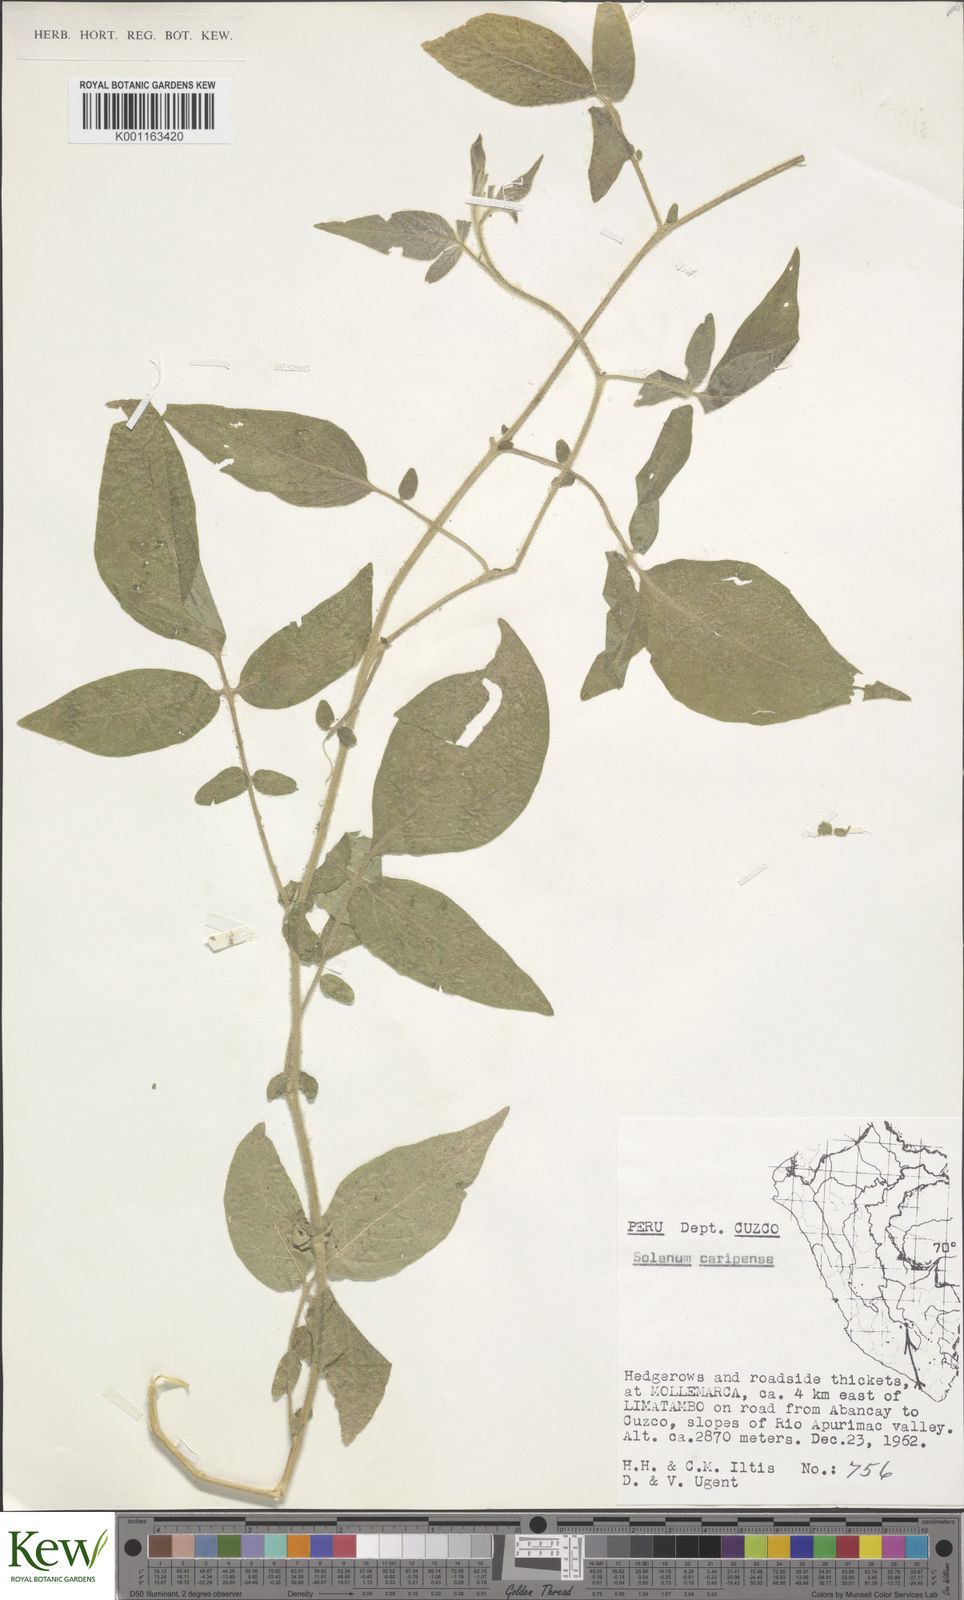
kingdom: Plantae
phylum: Tracheophyta
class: Magnoliopsida
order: Solanales
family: Solanaceae
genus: Solanum
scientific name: Solanum caripense
